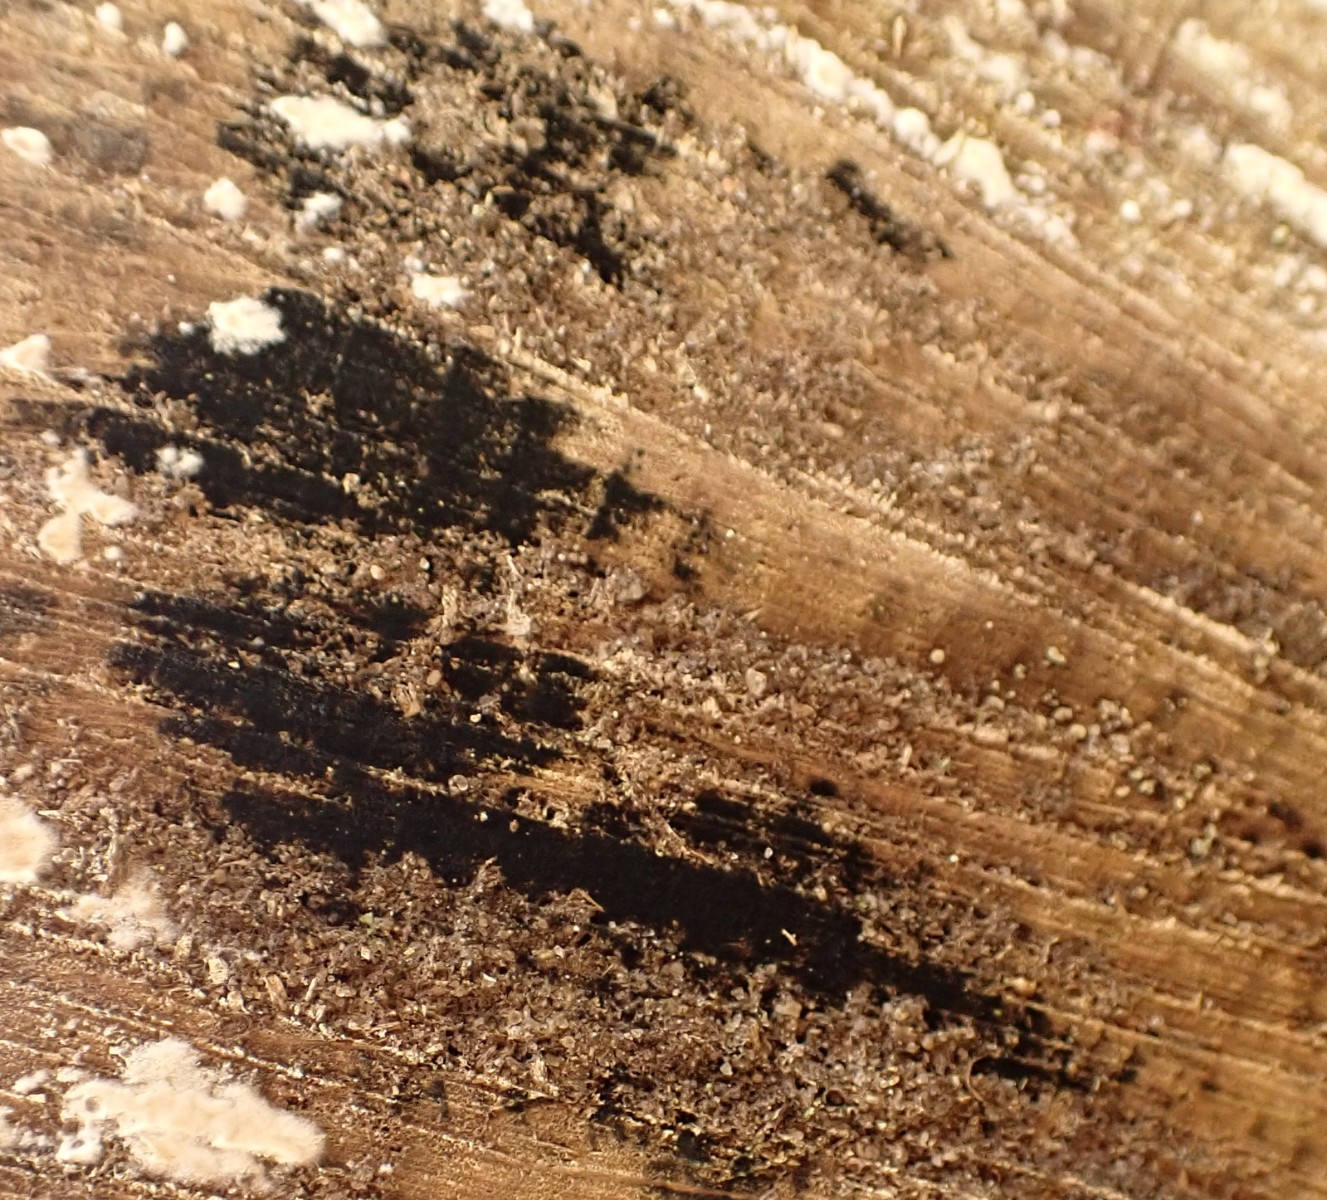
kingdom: Fungi
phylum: Ascomycota
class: Leotiomycetes
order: Helotiales
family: Helotiaceae
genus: Bispora
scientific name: Bispora pallescens
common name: måtte-snitskive
